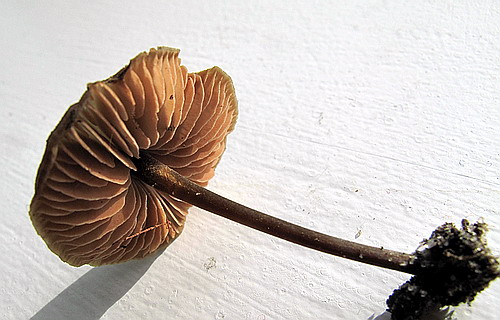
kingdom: Fungi
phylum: Basidiomycota
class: Agaricomycetes
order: Agaricales
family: Entolomataceae
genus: Entoloma
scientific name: Entoloma hebes
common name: krat-rødblad
